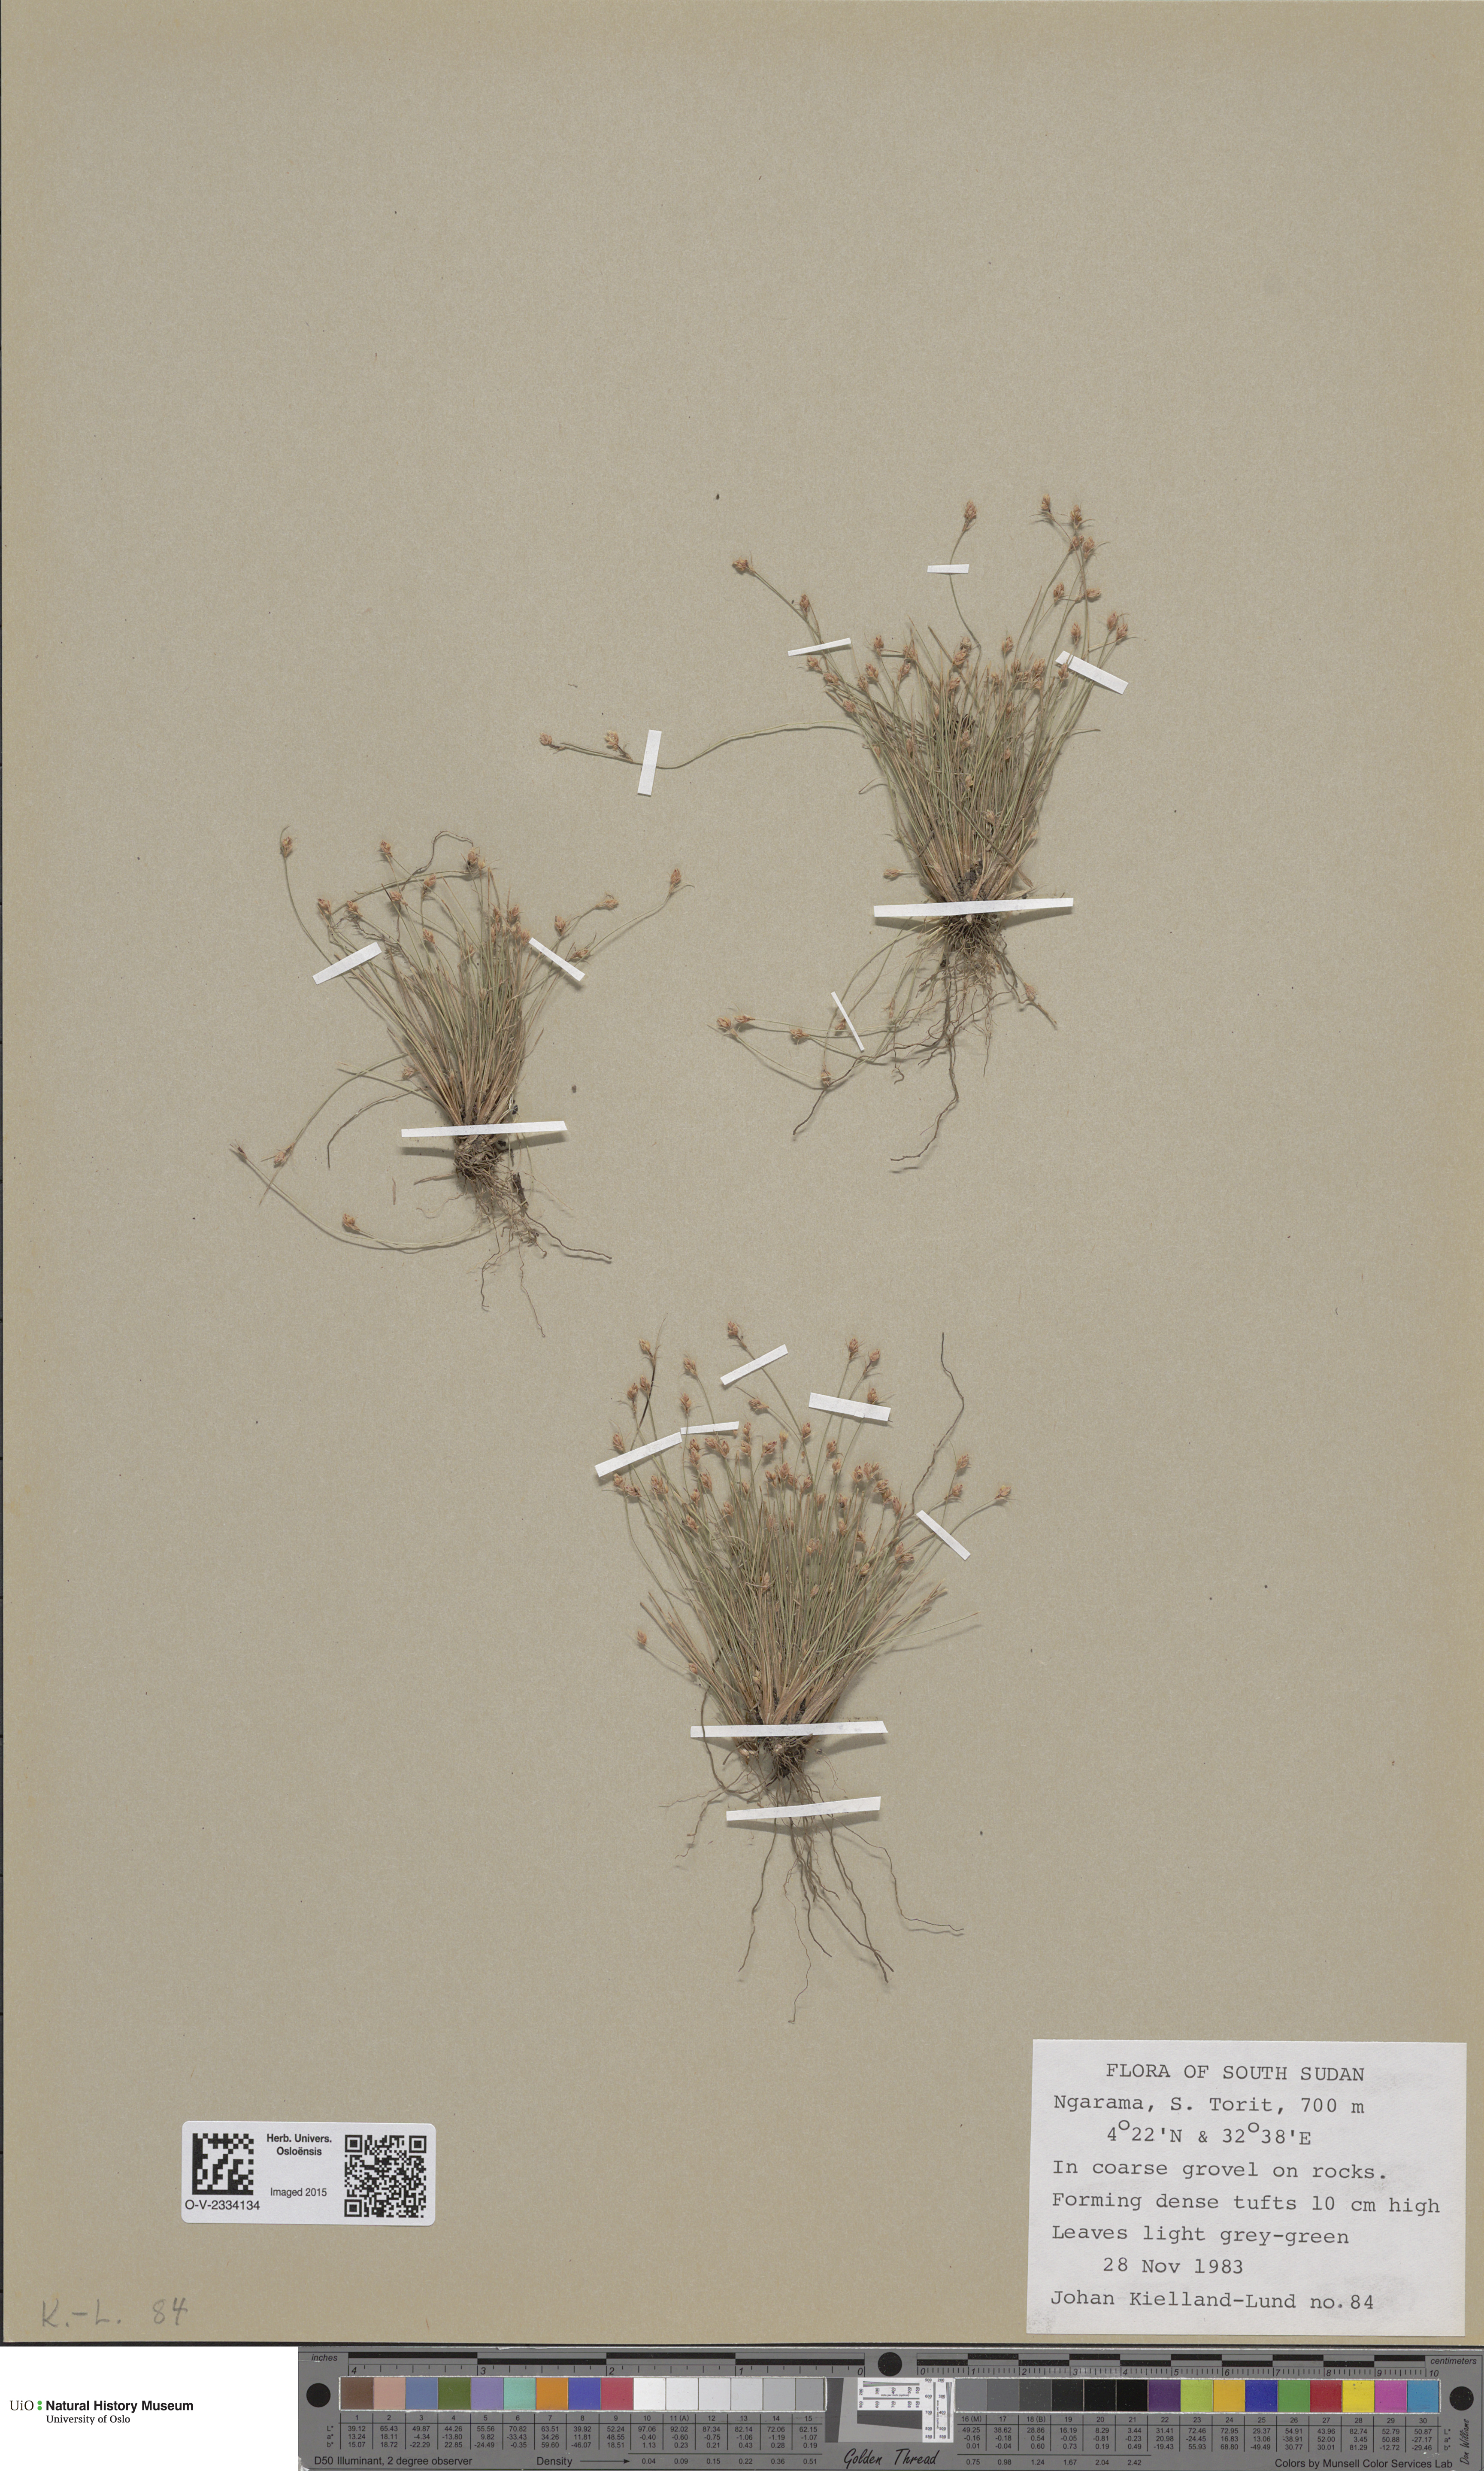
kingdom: Plantae
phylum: Tracheophyta
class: Magnoliopsida
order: Saxifragales
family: Saxifragaceae
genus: Saxifraga
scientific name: Saxifraga oppositifolia
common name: Purple saxifrage
